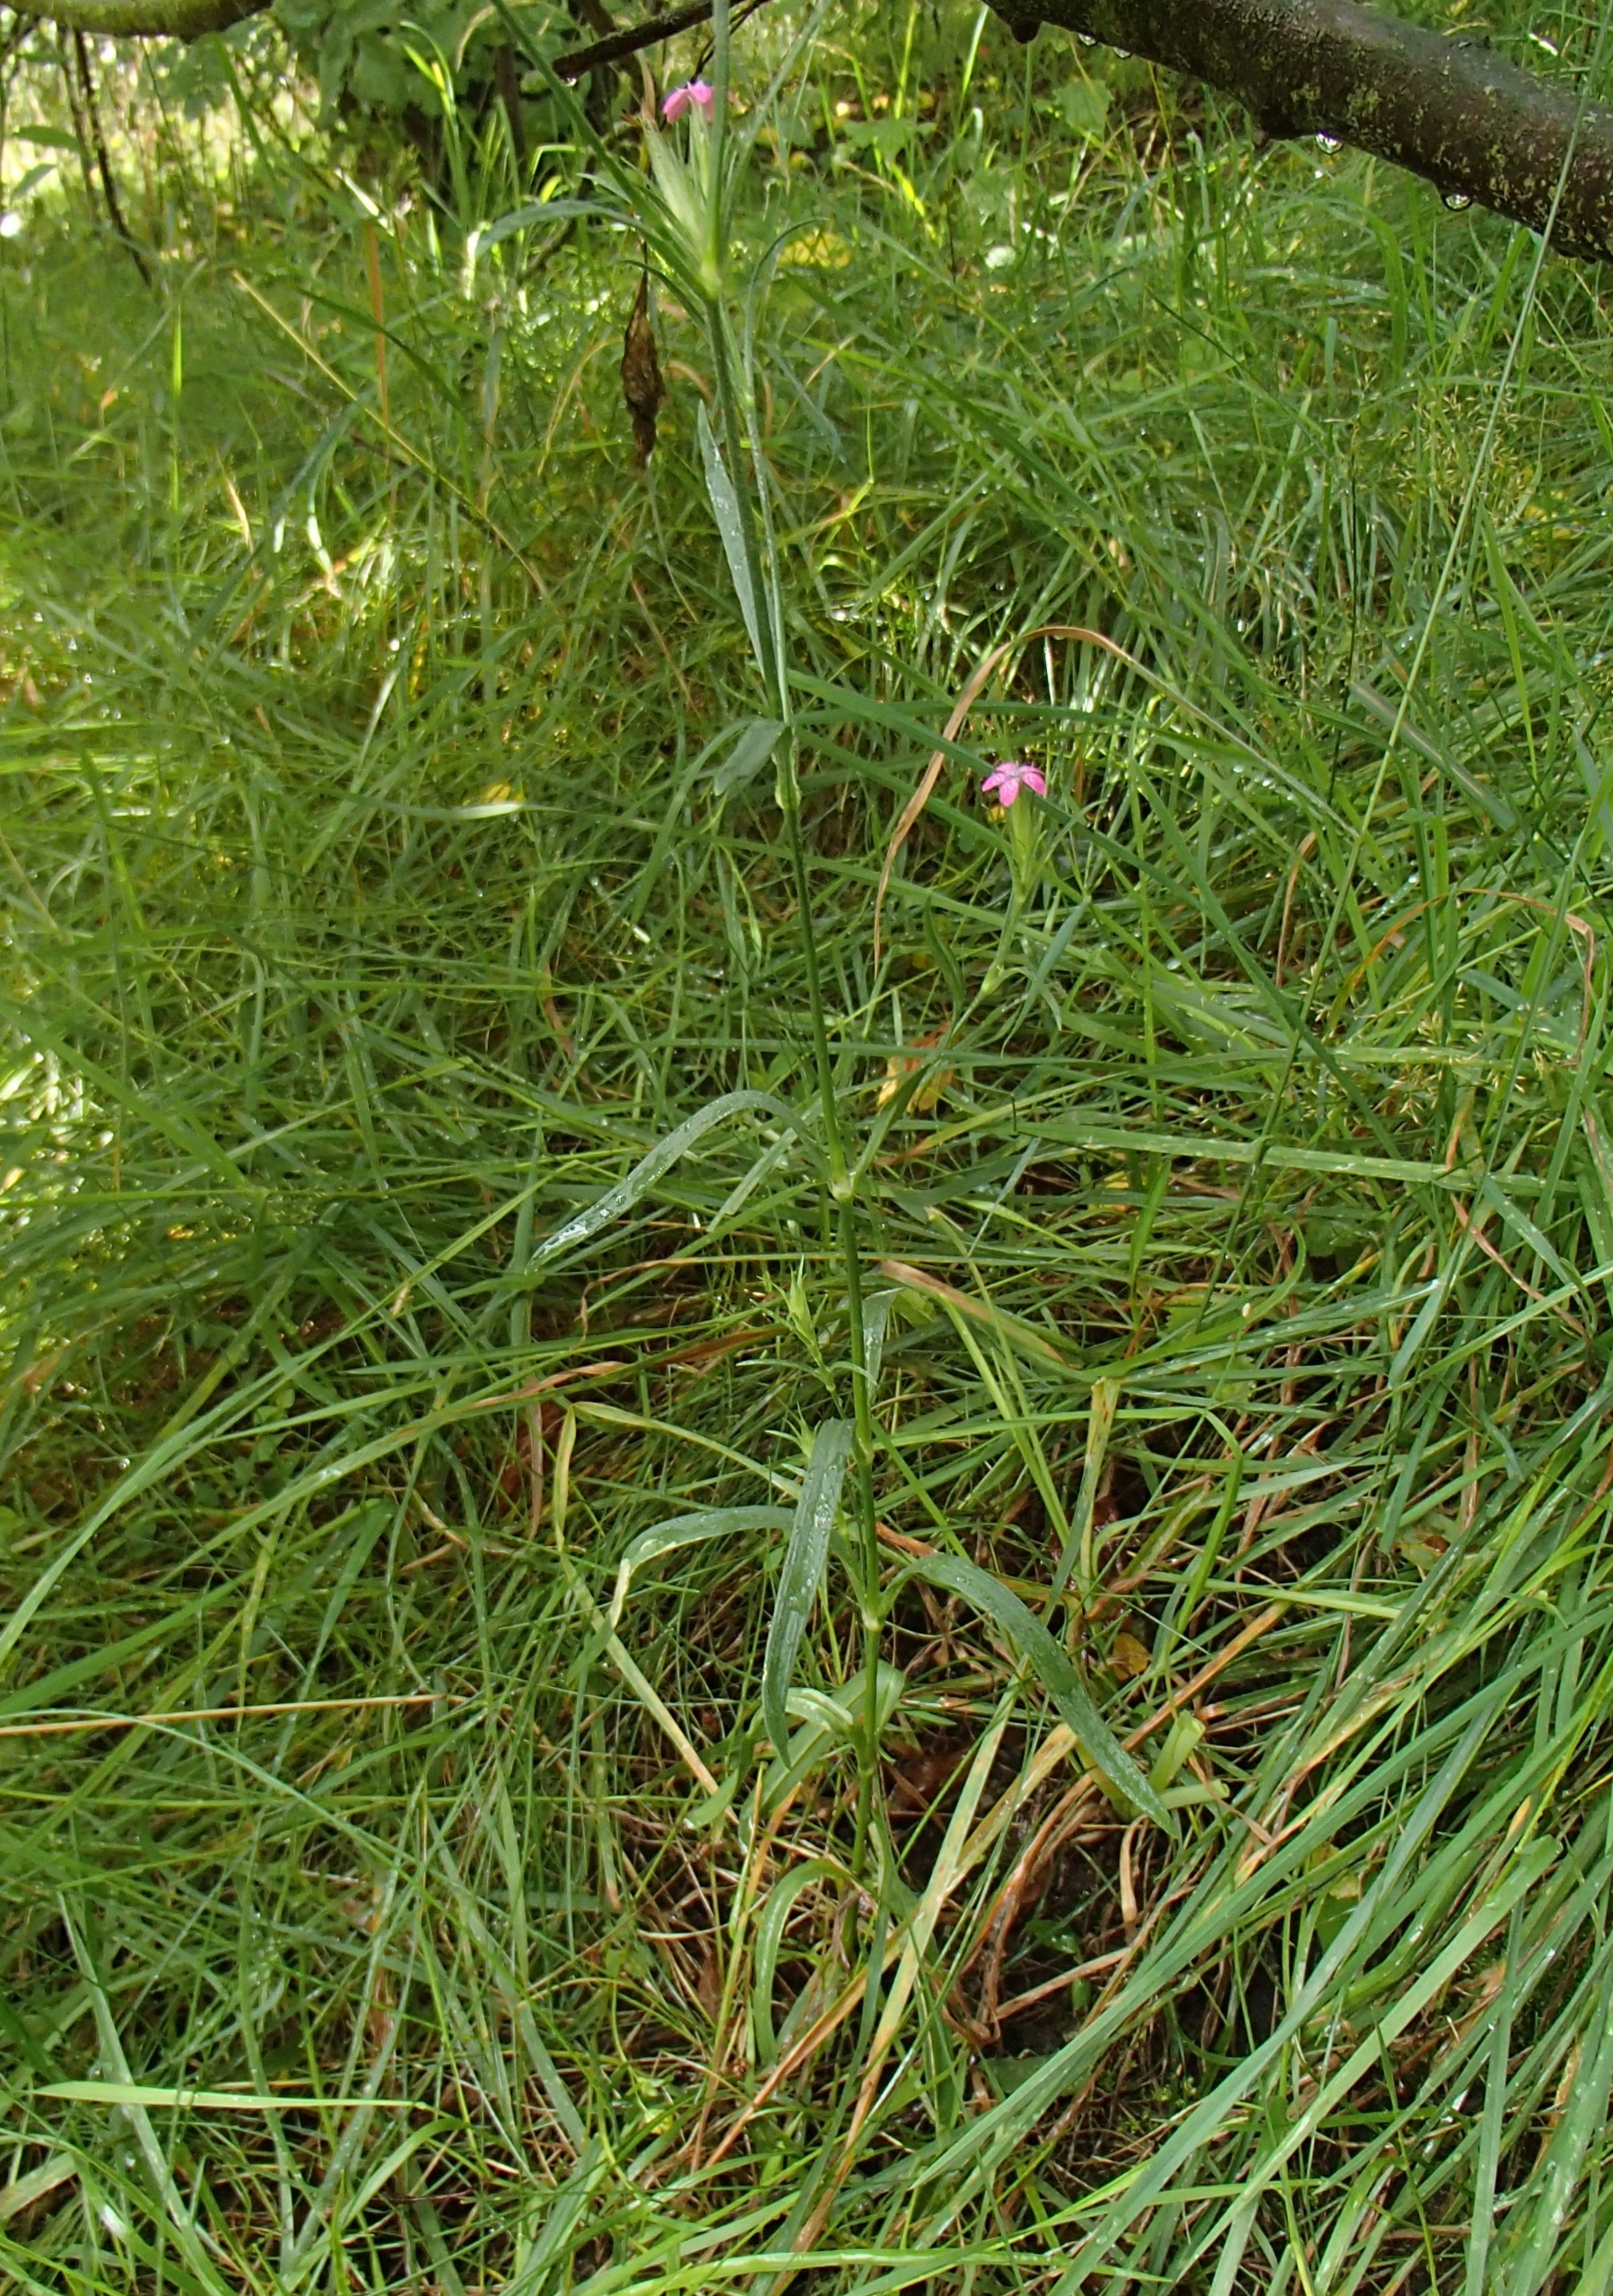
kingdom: Plantae
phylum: Tracheophyta
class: Magnoliopsida
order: Caryophyllales
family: Caryophyllaceae
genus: Dianthus
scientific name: Dianthus armeria
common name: Kost-nellike
